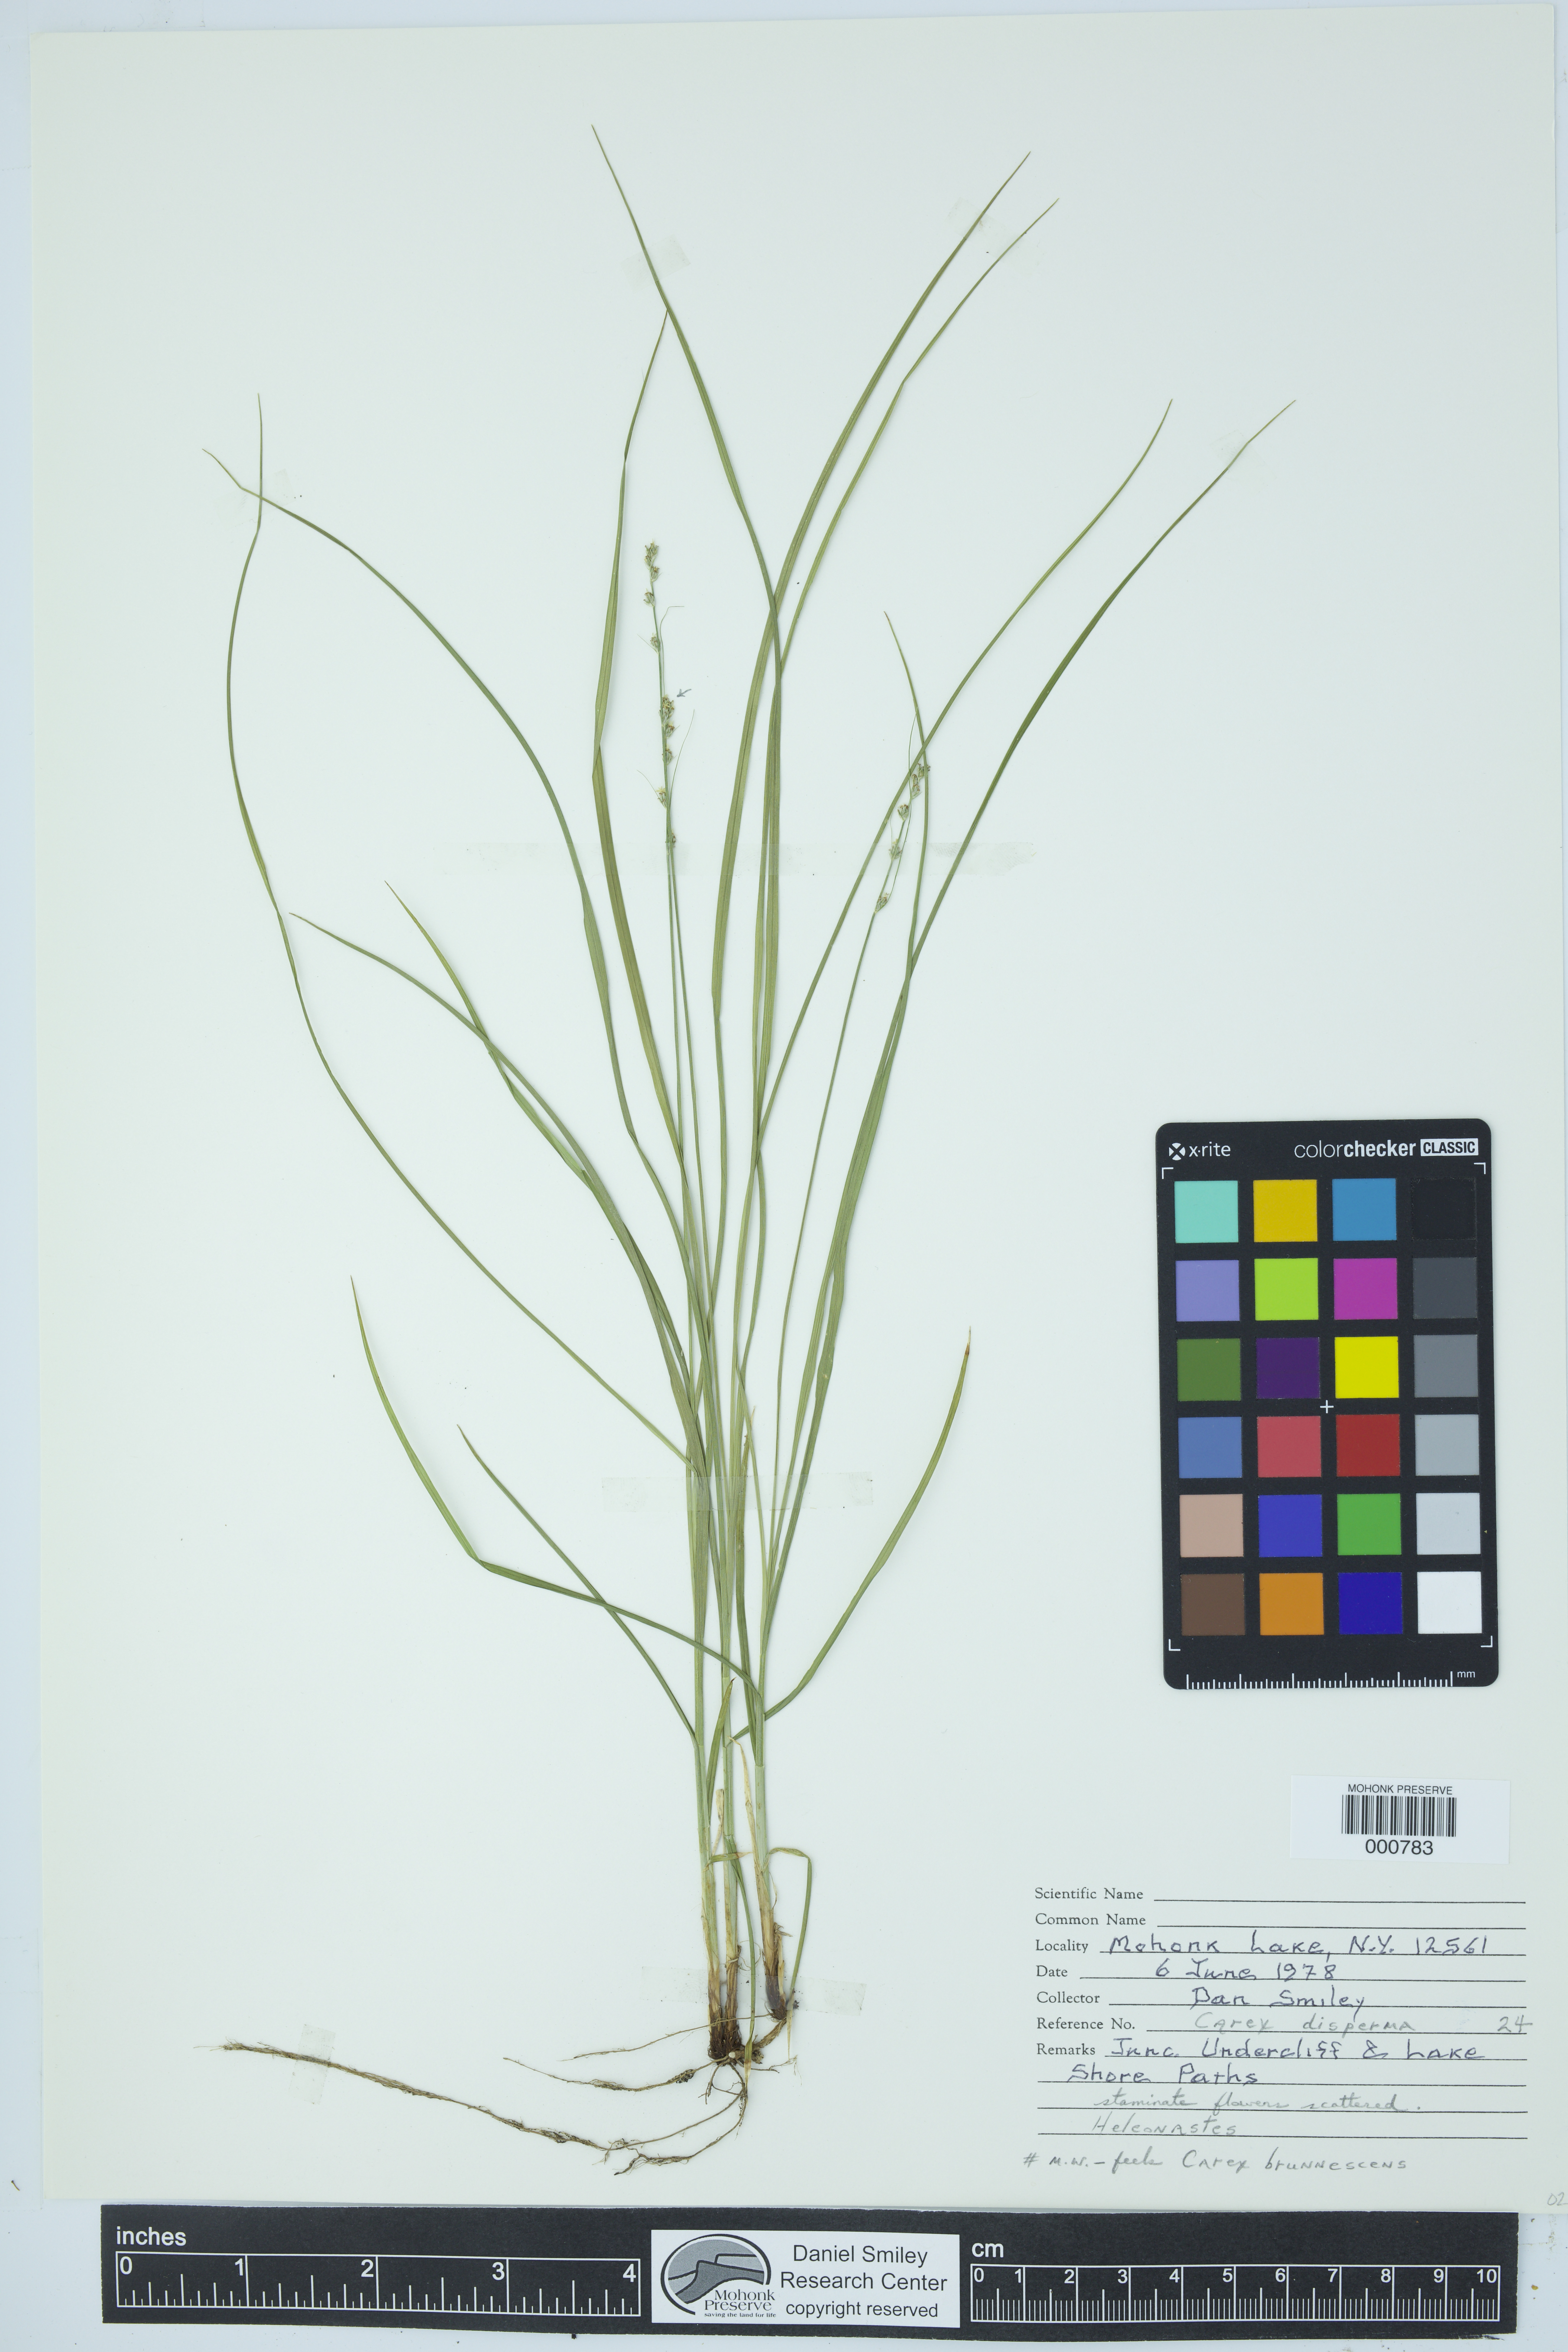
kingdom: Plantae
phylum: Tracheophyta
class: Liliopsida
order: Poales
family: Cyperaceae
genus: Carex
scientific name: Carex rosea
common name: Curly-styled wood sedge
